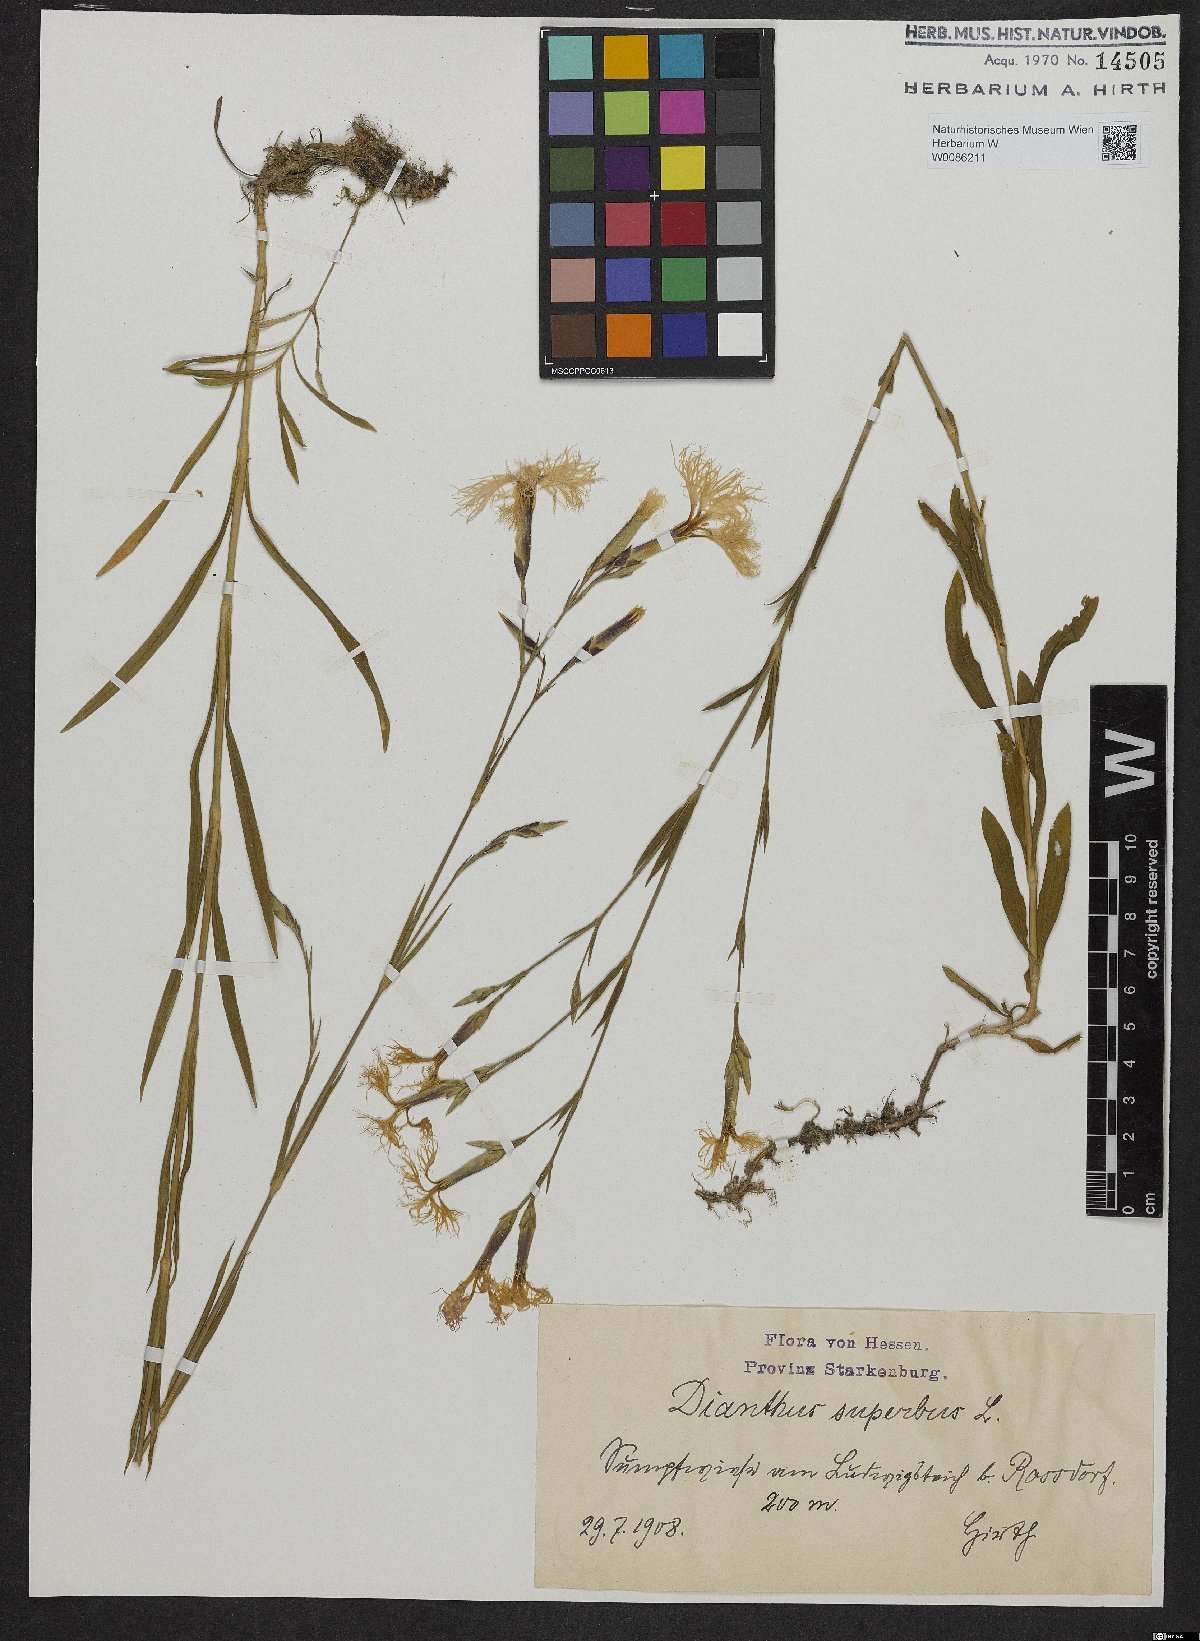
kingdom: Plantae
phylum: Tracheophyta
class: Magnoliopsida
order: Caryophyllales
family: Caryophyllaceae
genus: Dianthus
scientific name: Dianthus superbus
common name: Fringed pink
